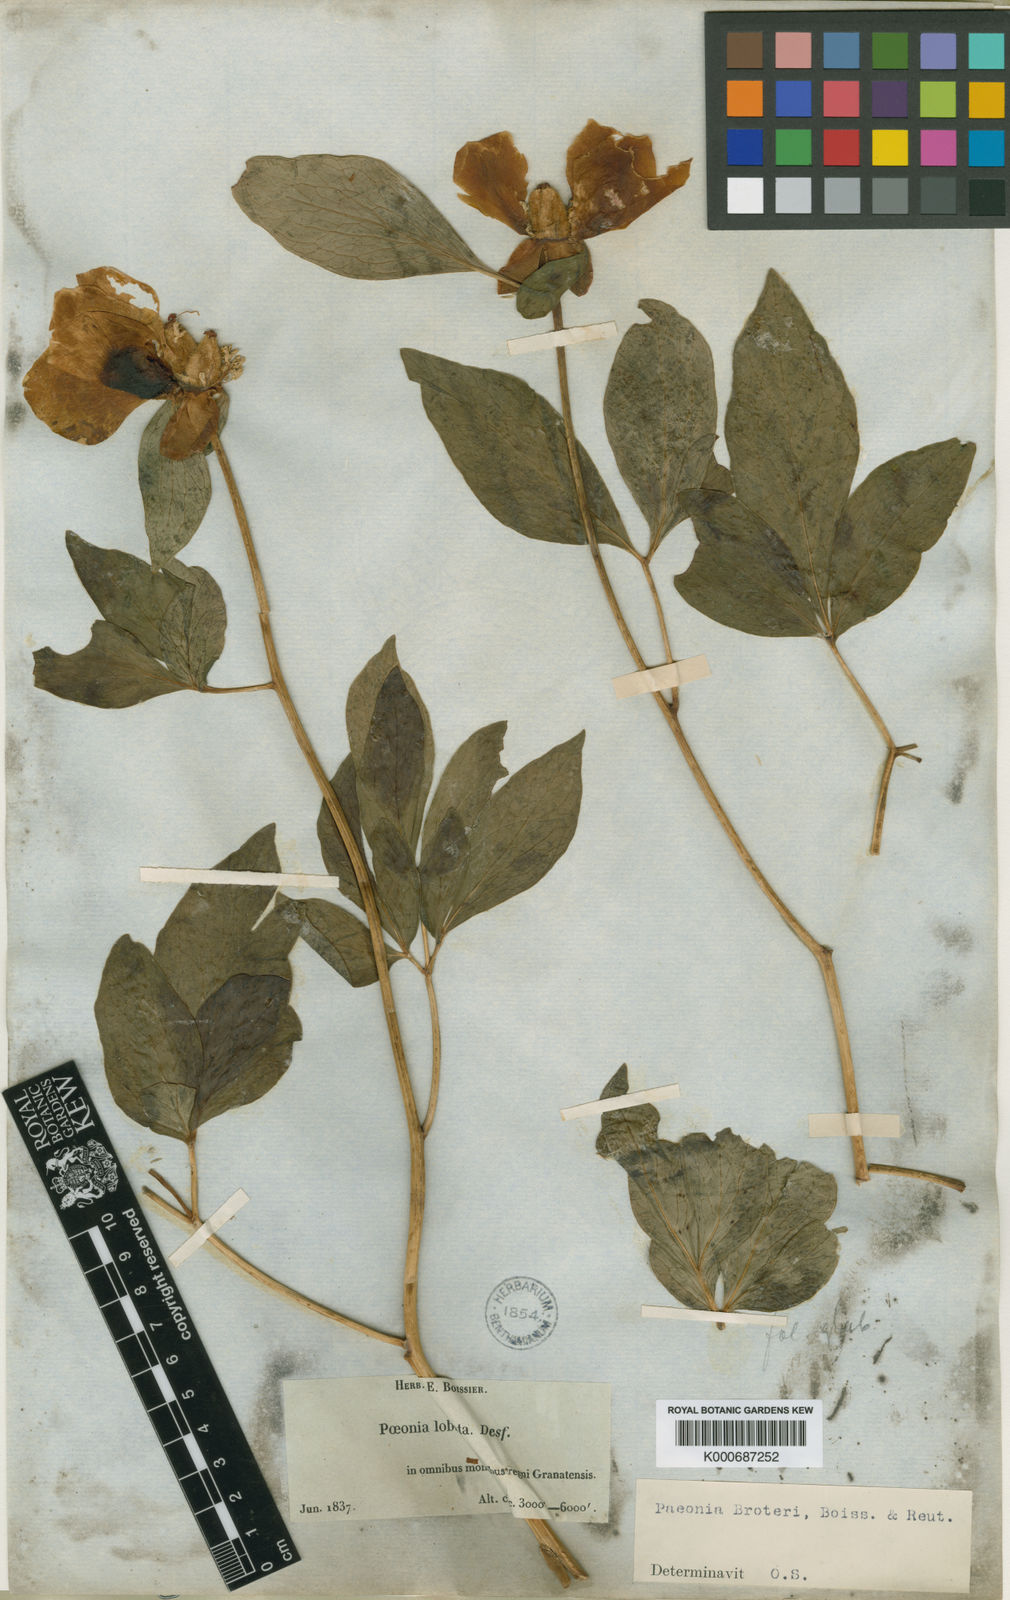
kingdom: Plantae
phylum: Tracheophyta
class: Magnoliopsida
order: Saxifragales
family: Paeoniaceae
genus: Paeonia
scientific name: Paeonia broteroi
